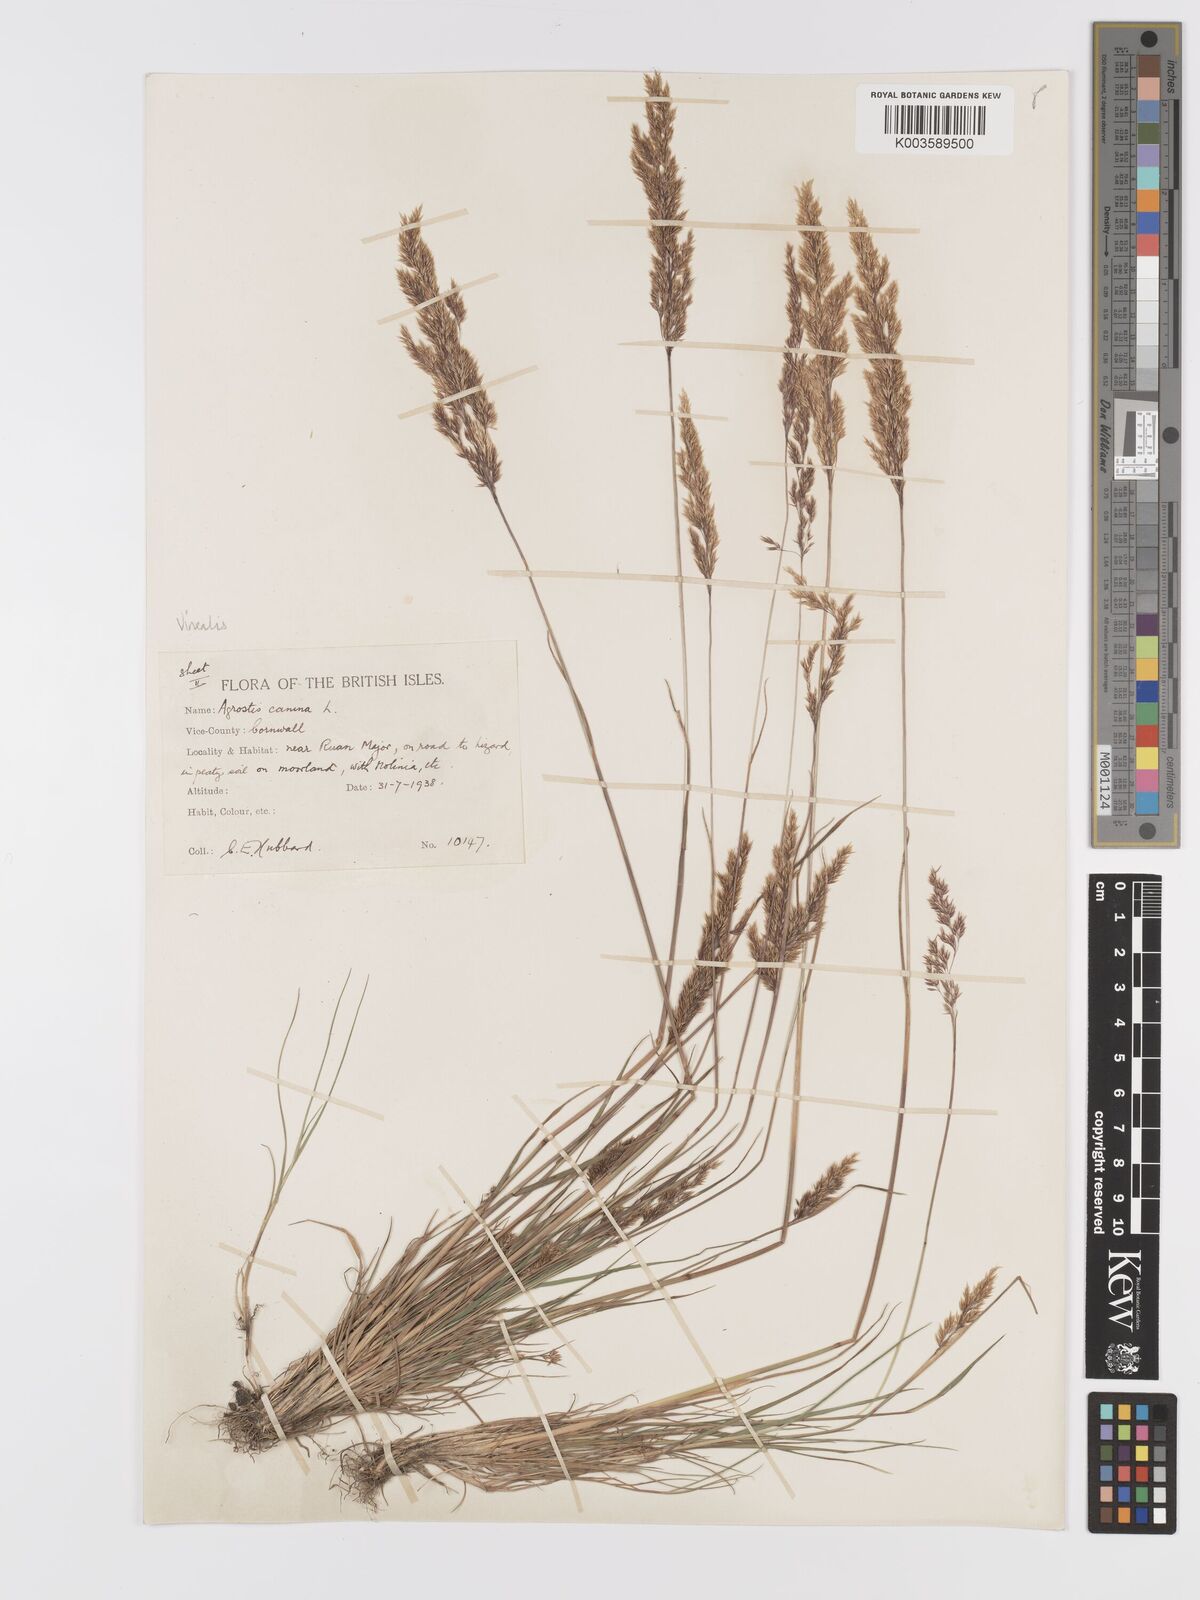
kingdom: Plantae
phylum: Tracheophyta
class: Liliopsida
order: Poales
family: Poaceae
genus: Agrostis
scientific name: Agrostis
